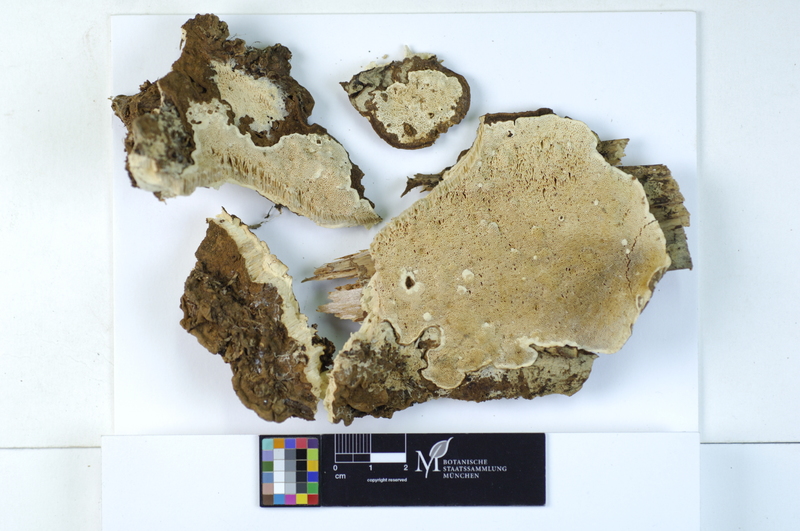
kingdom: Plantae
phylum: Tracheophyta
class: Pinopsida
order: Pinales
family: Pinaceae
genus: Picea
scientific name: Picea
